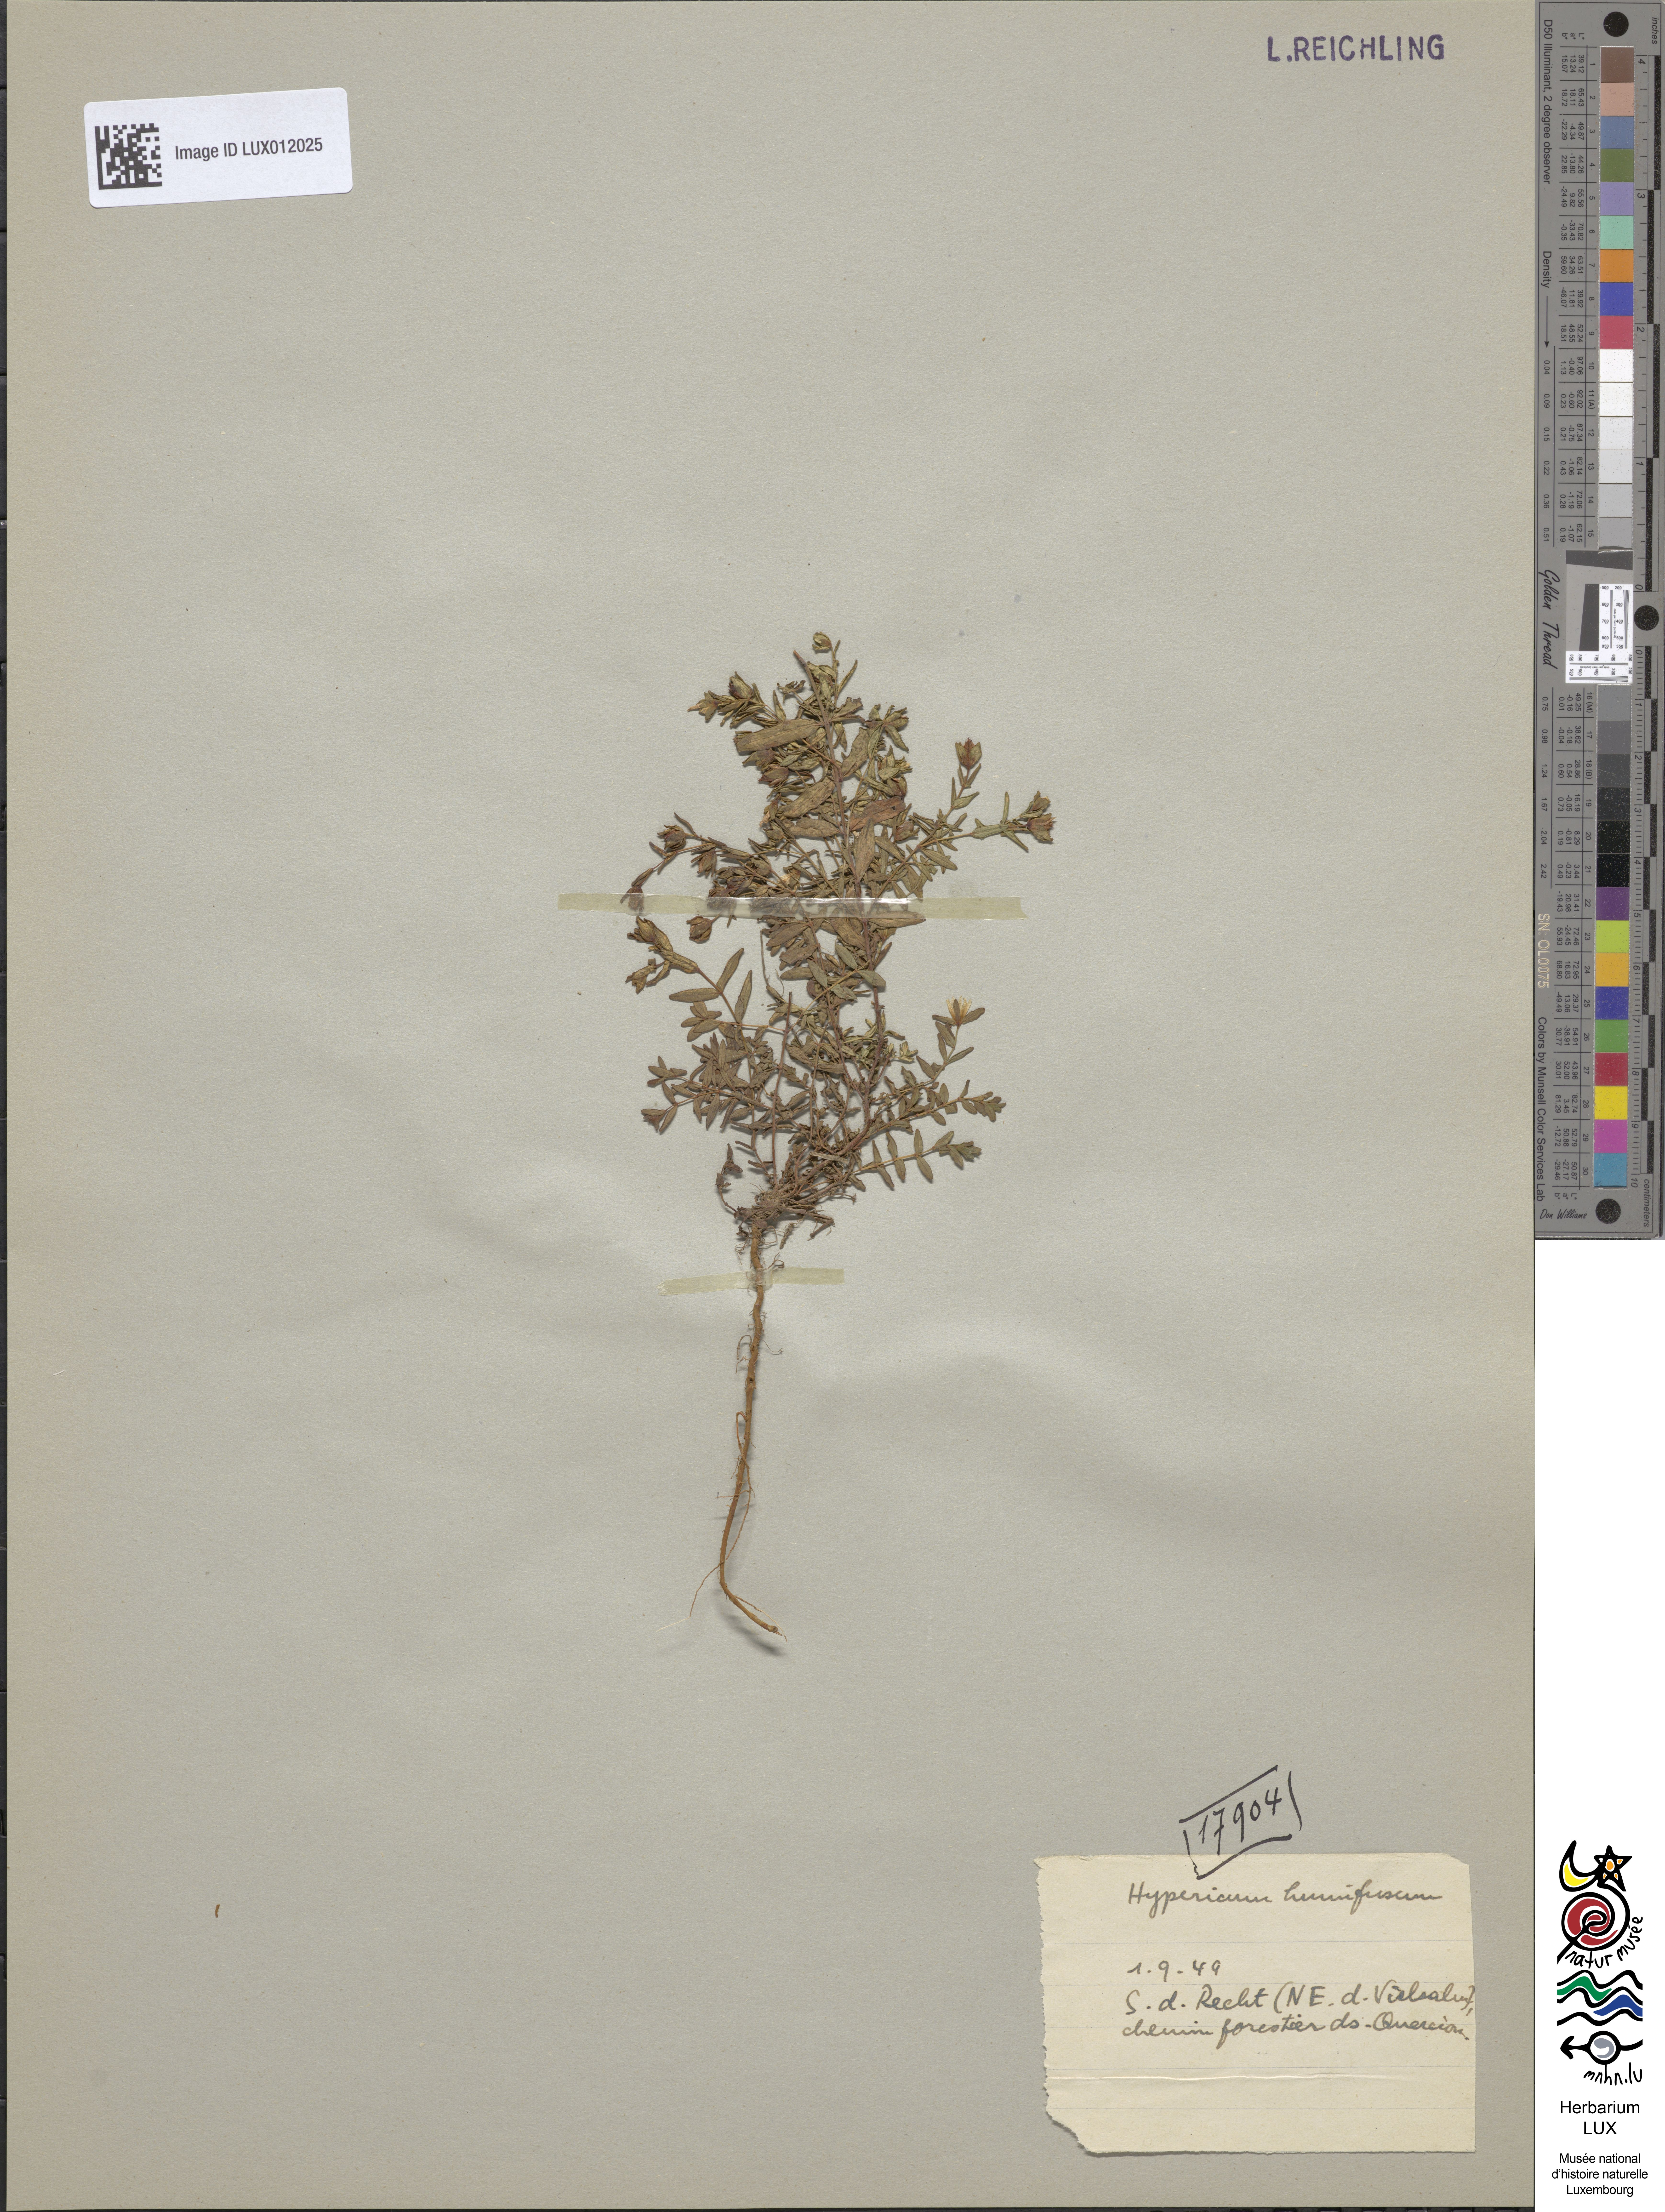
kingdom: Plantae
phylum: Tracheophyta
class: Magnoliopsida
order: Malpighiales
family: Hypericaceae
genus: Hypericum
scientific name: Hypericum humifusum
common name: Trailing st. john's-wort
